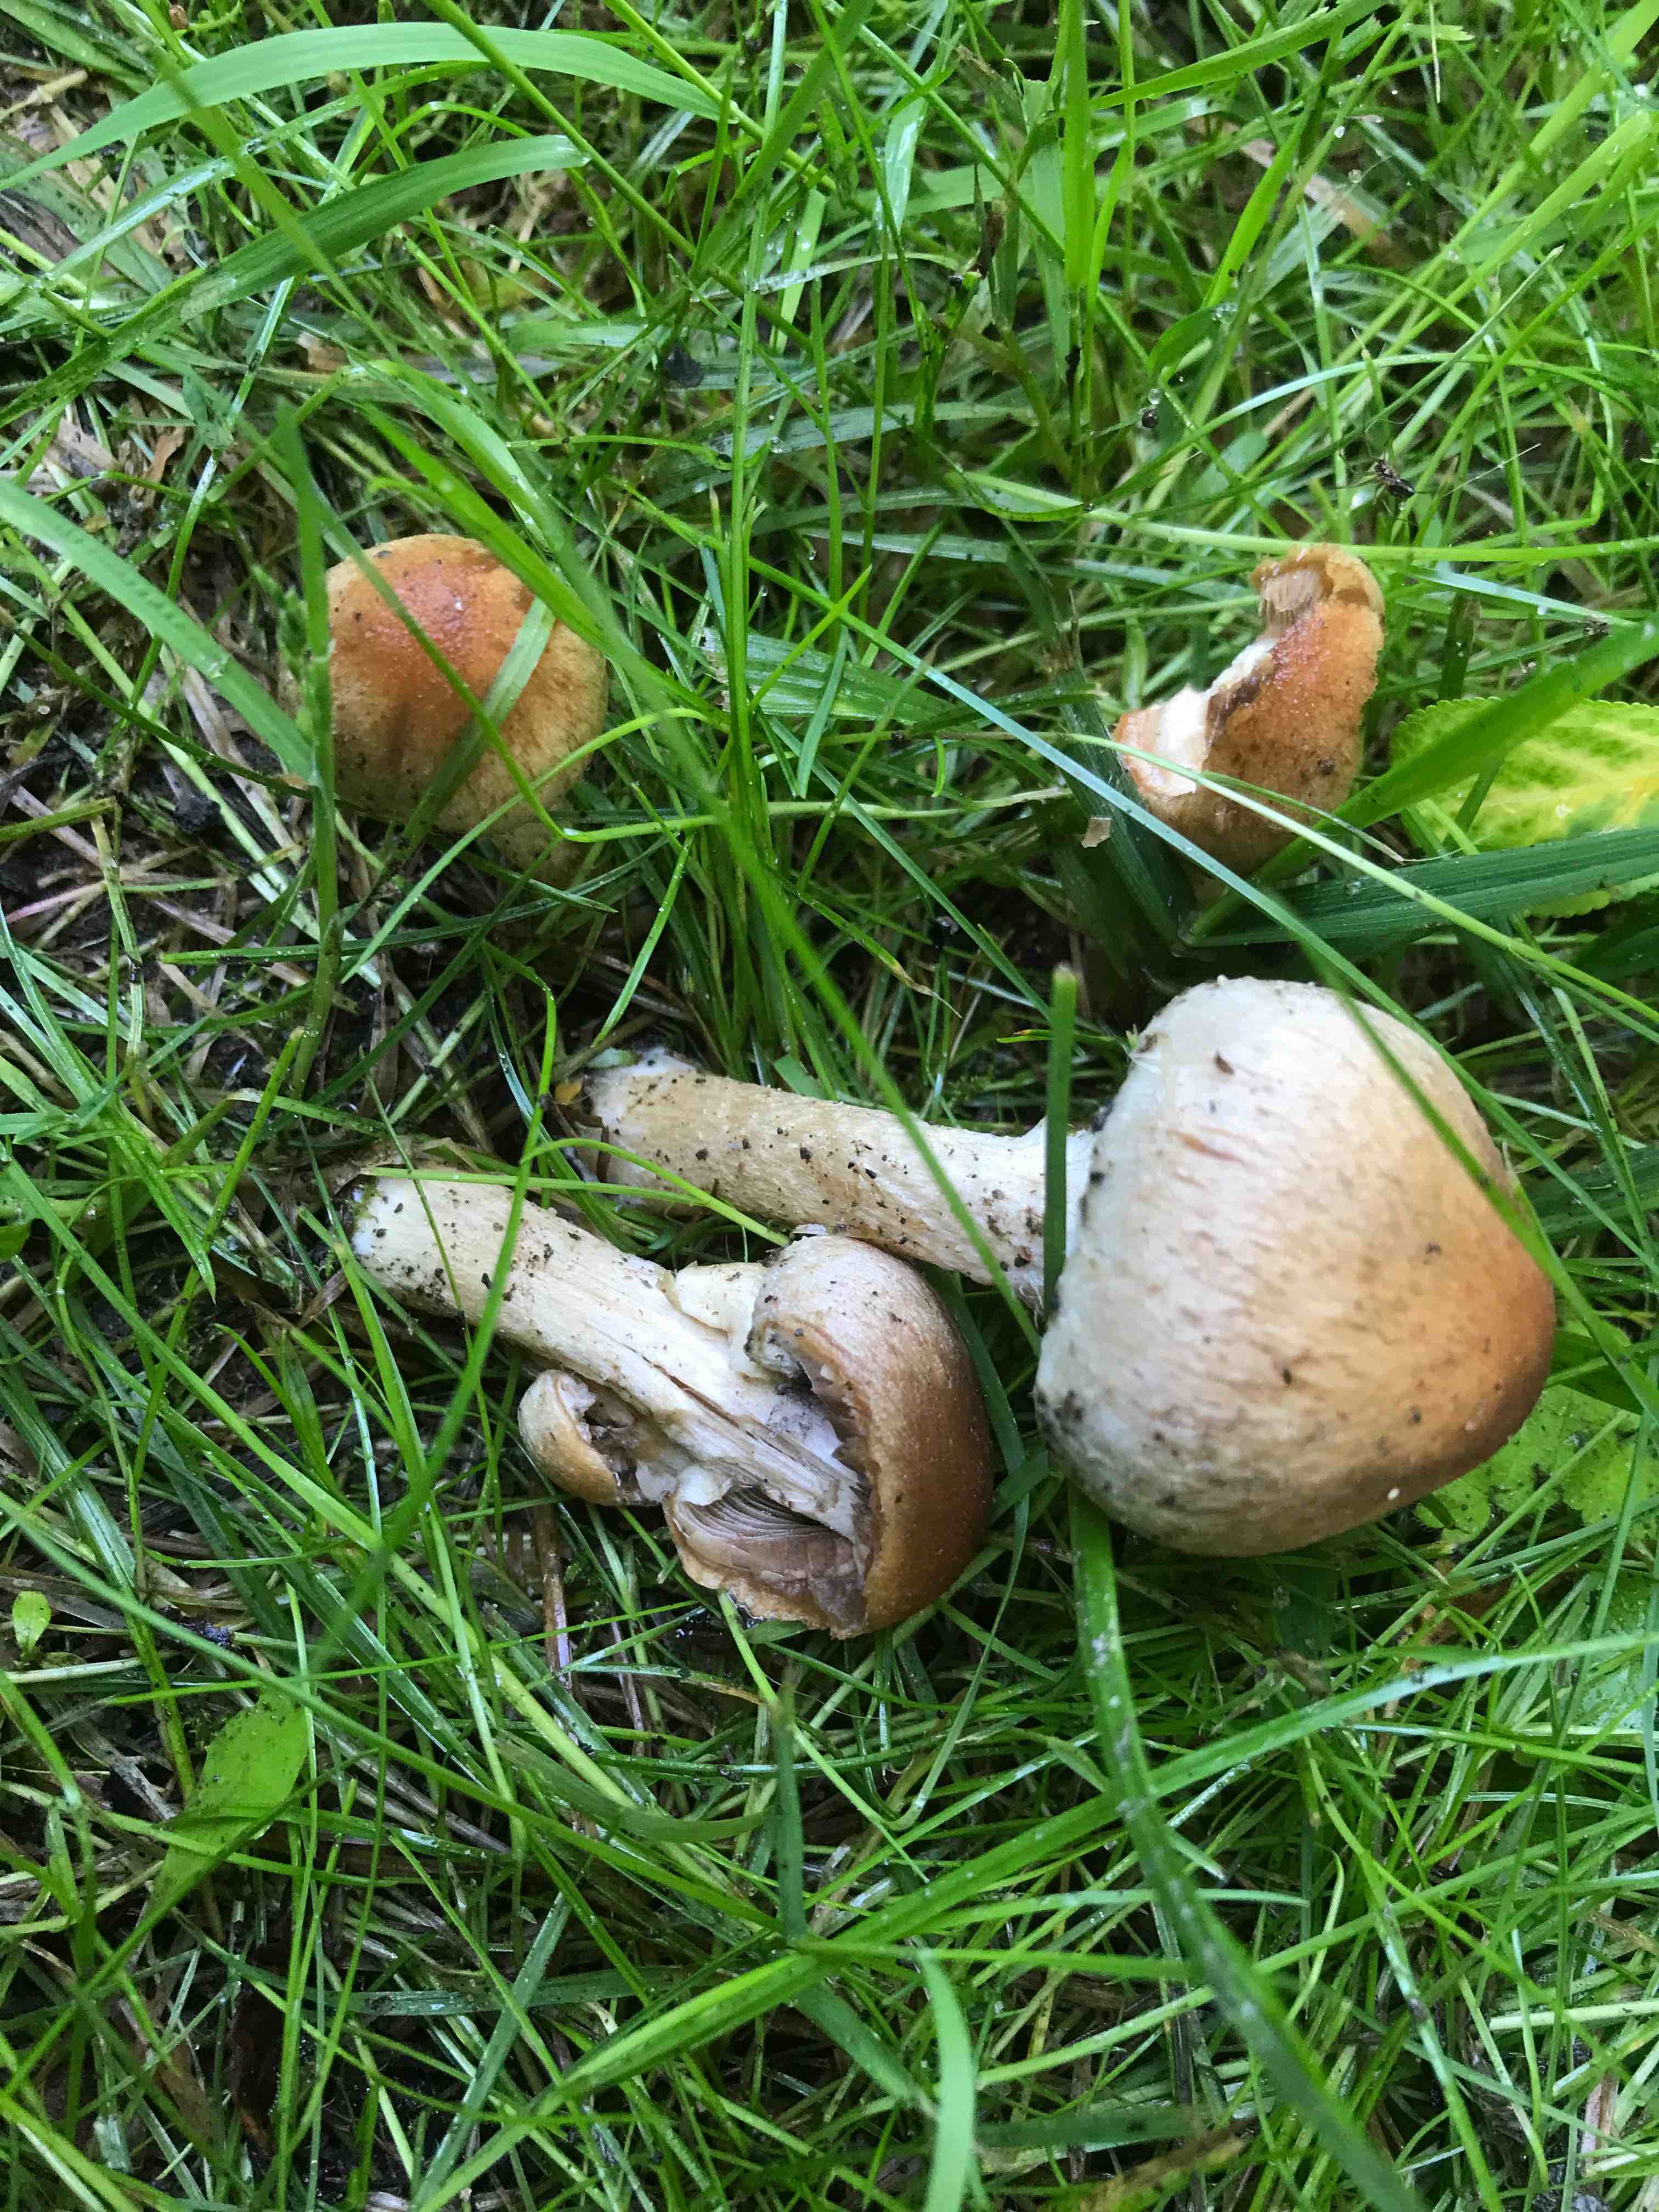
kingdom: Fungi
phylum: Basidiomycota
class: Agaricomycetes
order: Agaricales
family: Psathyrellaceae
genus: Lacrymaria
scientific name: Lacrymaria lacrymabunda
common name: grædende mørkhat
